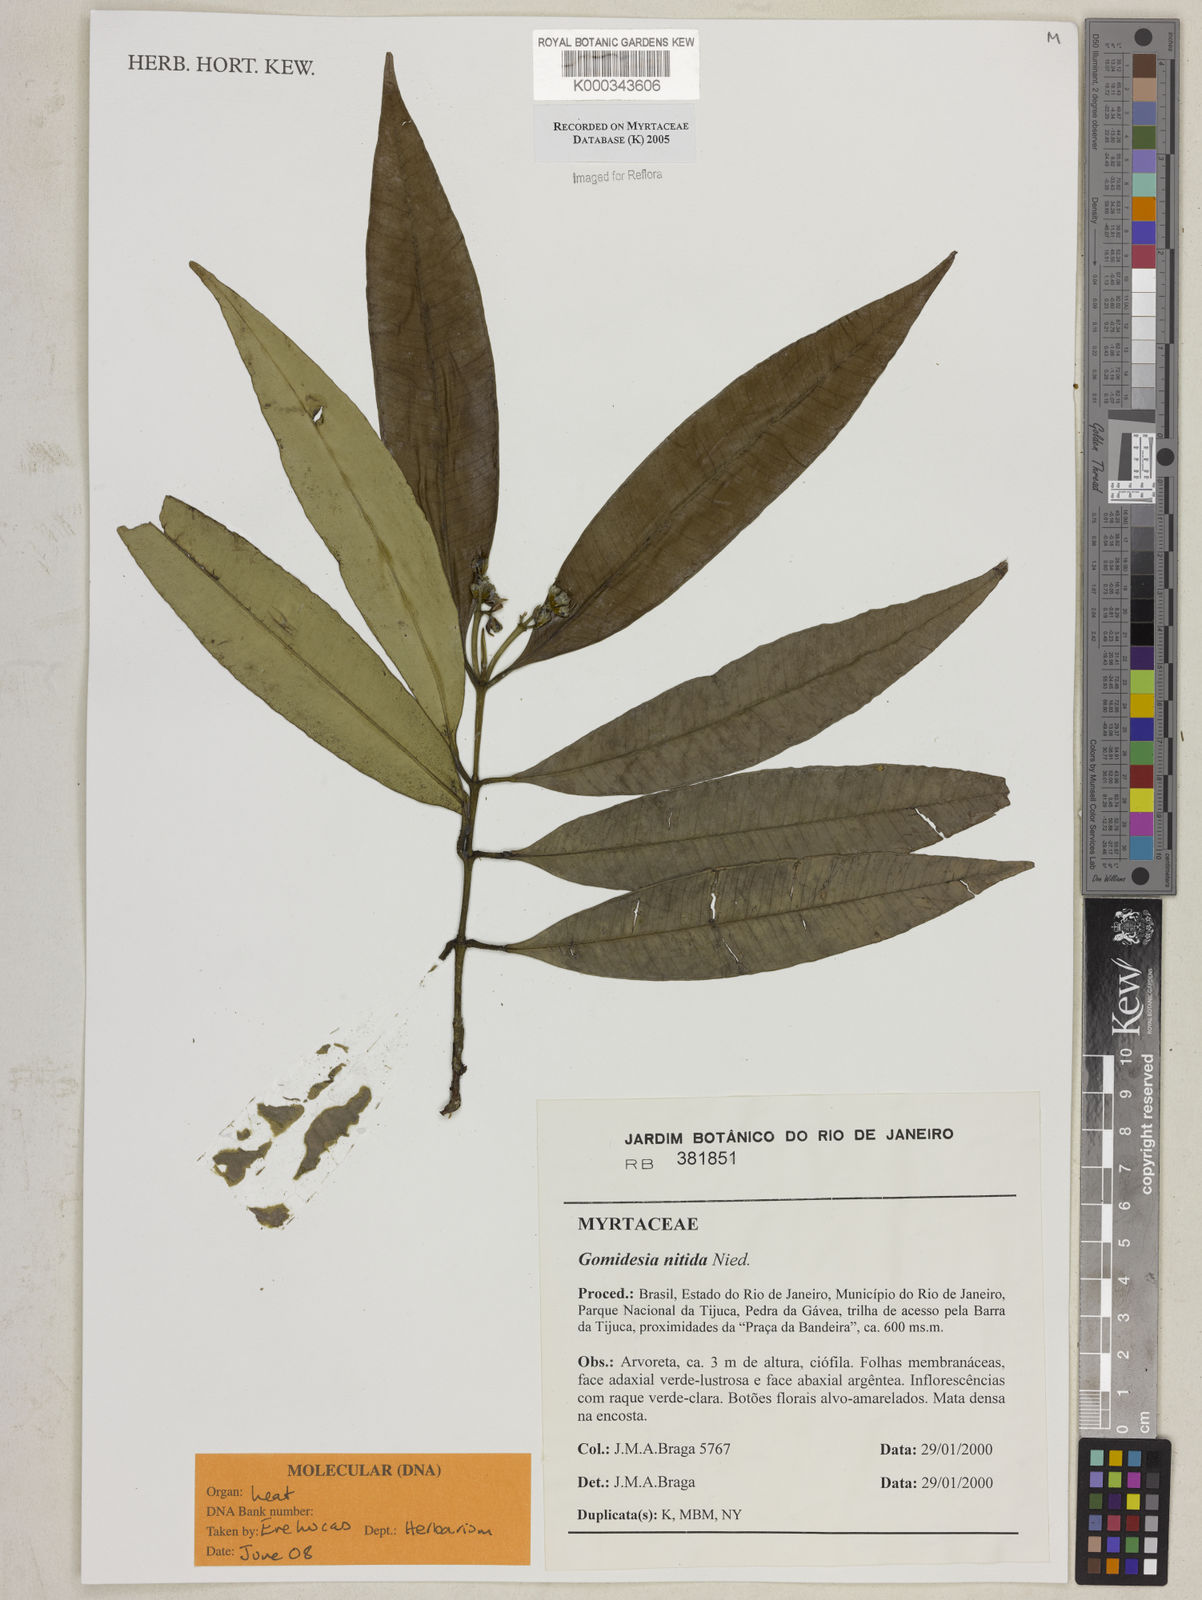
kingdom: Plantae
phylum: Tracheophyta
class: Magnoliopsida
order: Myrtales
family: Myrtaceae
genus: Myrcia
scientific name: Myrcia subsericea
